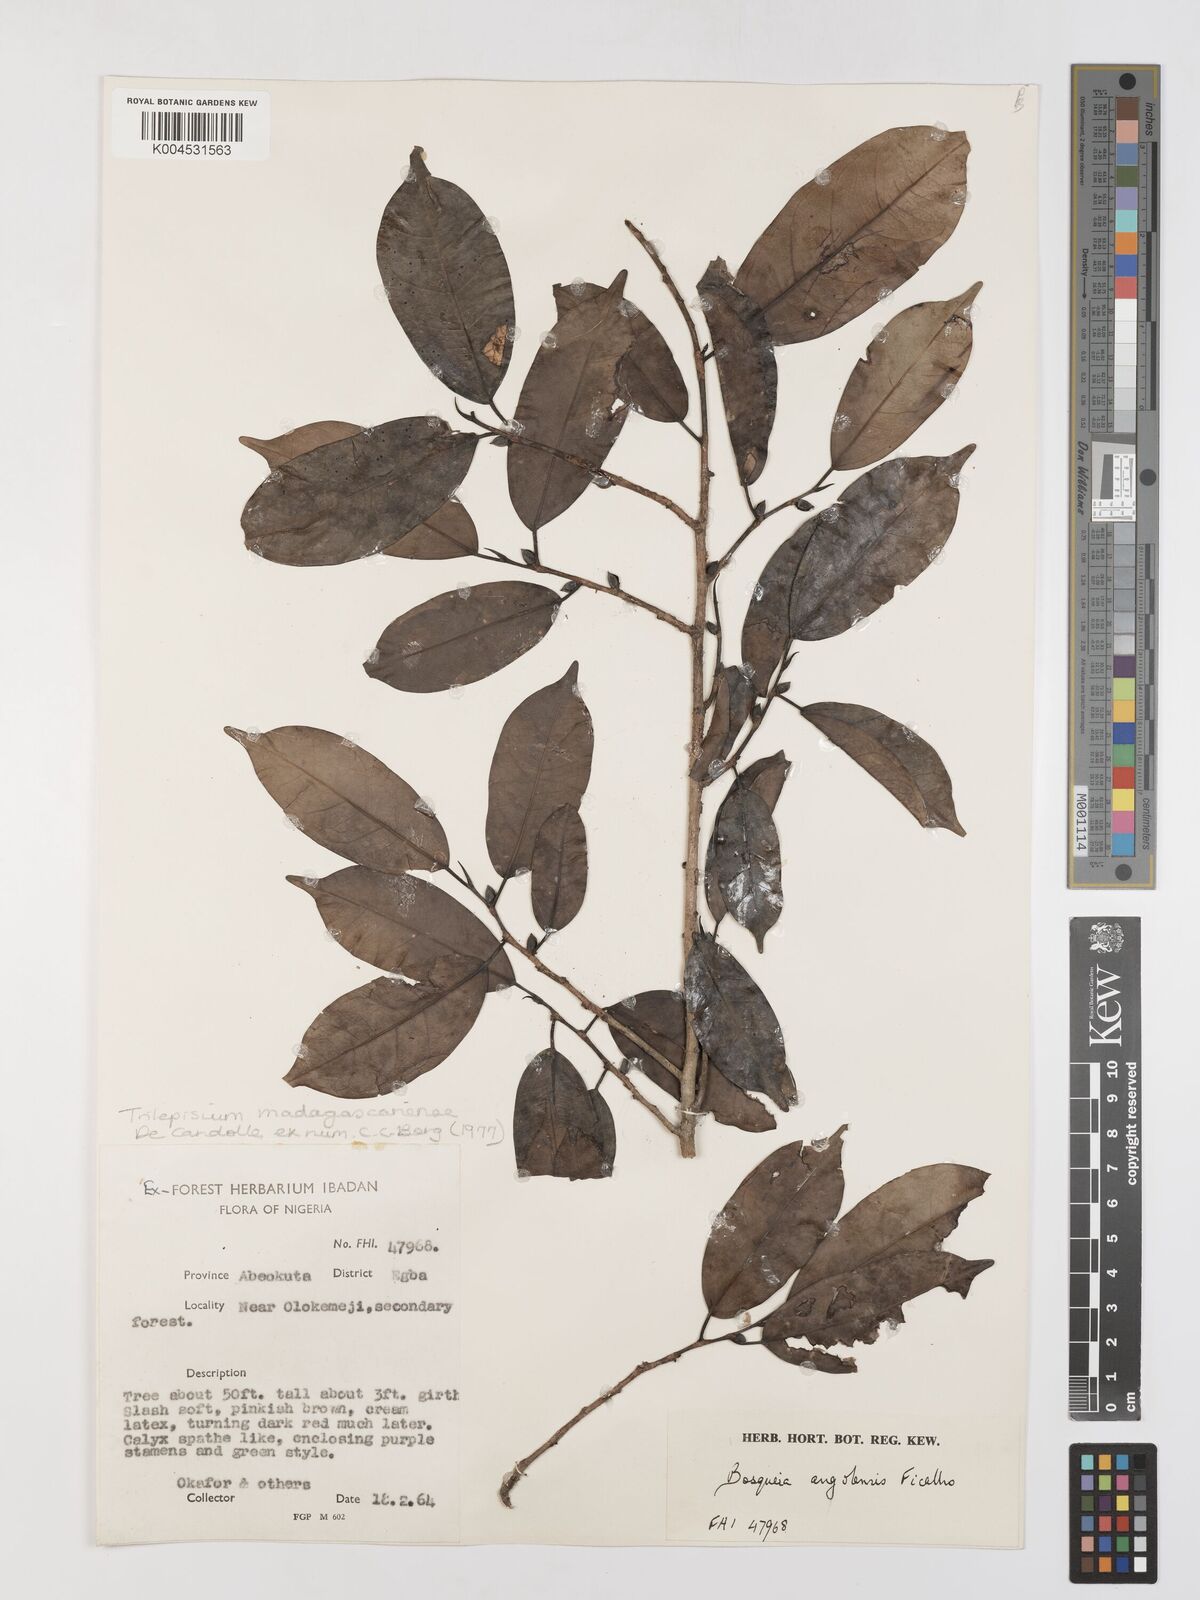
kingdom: Plantae
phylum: Tracheophyta
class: Magnoliopsida
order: Rosales
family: Moraceae
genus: Trilepisium
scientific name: Trilepisium madagascariense
